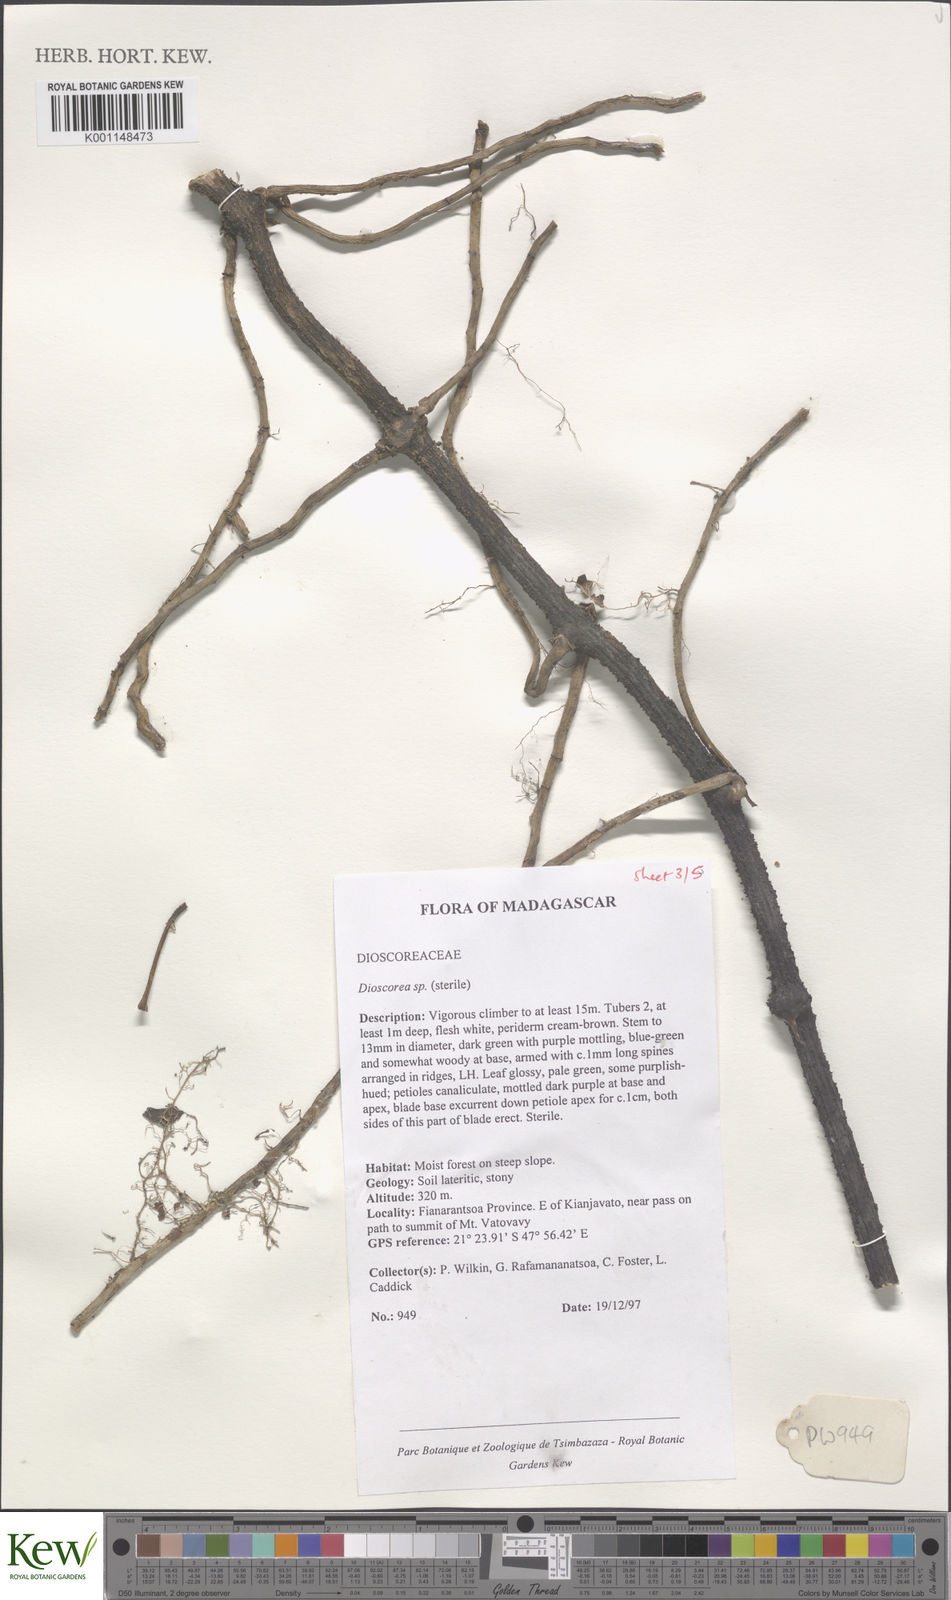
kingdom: Plantae
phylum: Tracheophyta
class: Liliopsida
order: Dioscoreales
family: Dioscoreaceae
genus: Dioscorea
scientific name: Dioscorea
